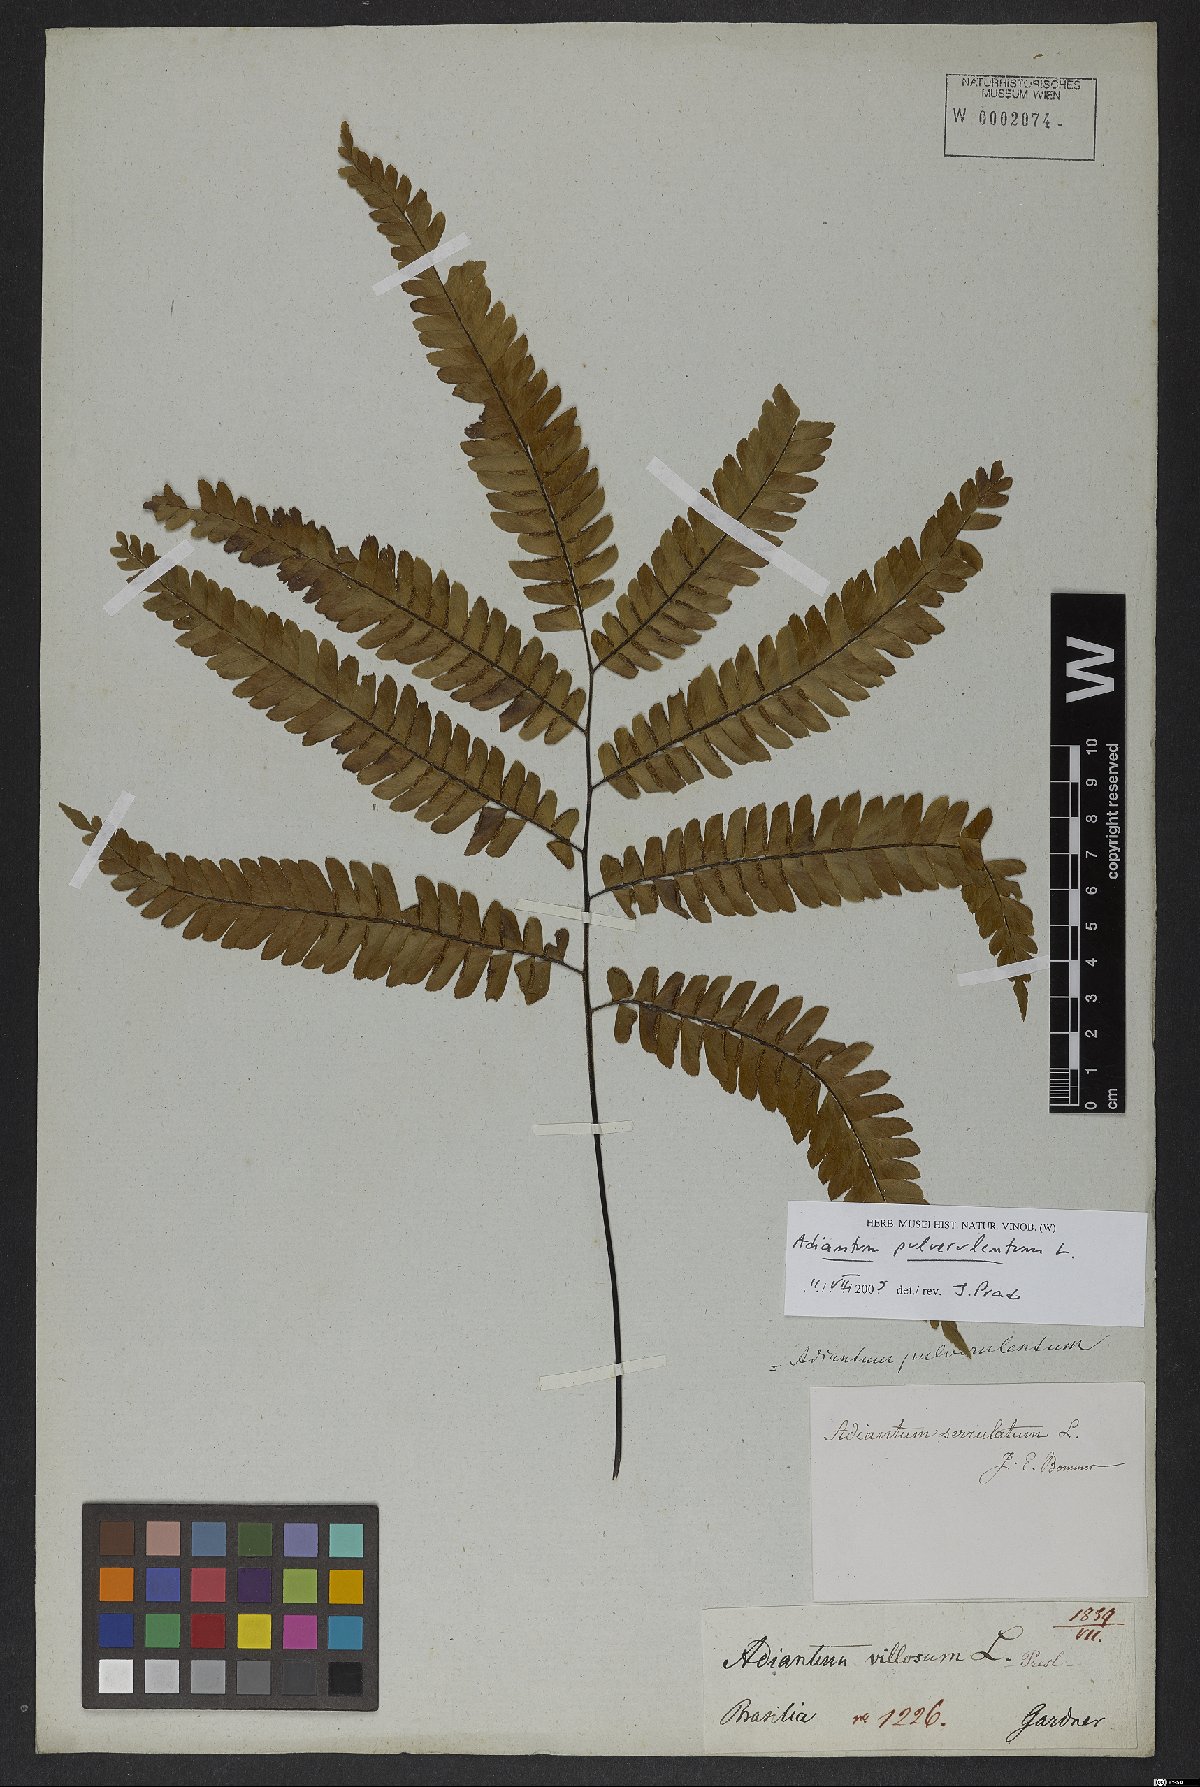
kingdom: Plantae
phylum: Tracheophyta
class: Polypodiopsida
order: Polypodiales
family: Pteridaceae
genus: Adiantum
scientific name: Adiantum pulverulentum
